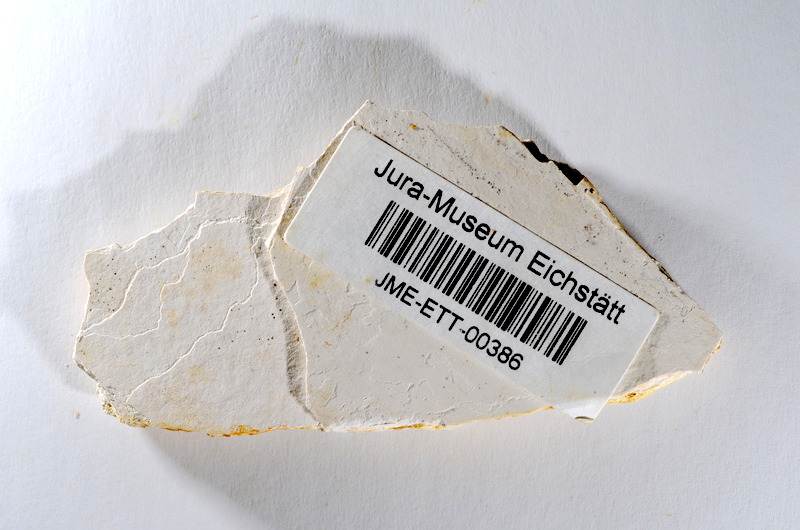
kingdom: Animalia
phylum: Chordata
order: Salmoniformes
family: Orthogonikleithridae
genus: Orthogonikleithrus
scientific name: Orthogonikleithrus hoelli
